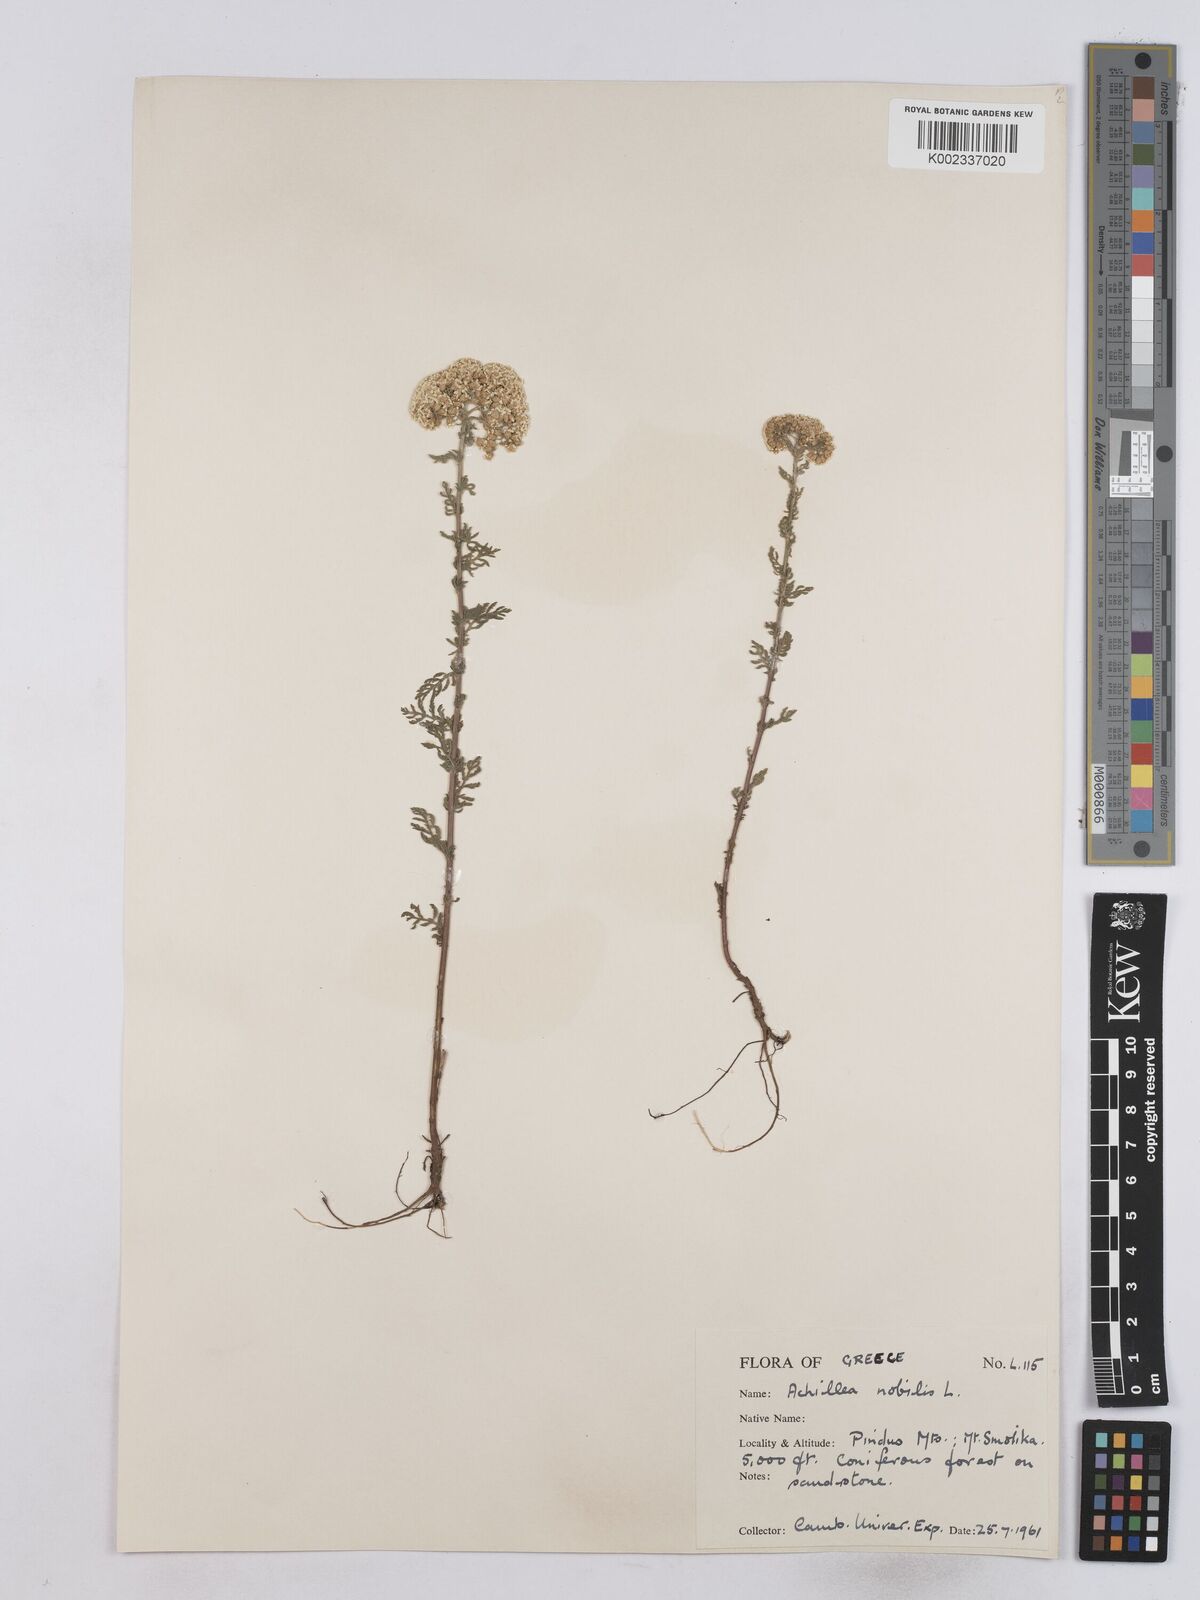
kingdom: Plantae
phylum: Tracheophyta
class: Magnoliopsida
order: Asterales
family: Asteraceae
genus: Achillea
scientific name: Achillea nobilis
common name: Noble yarrow
